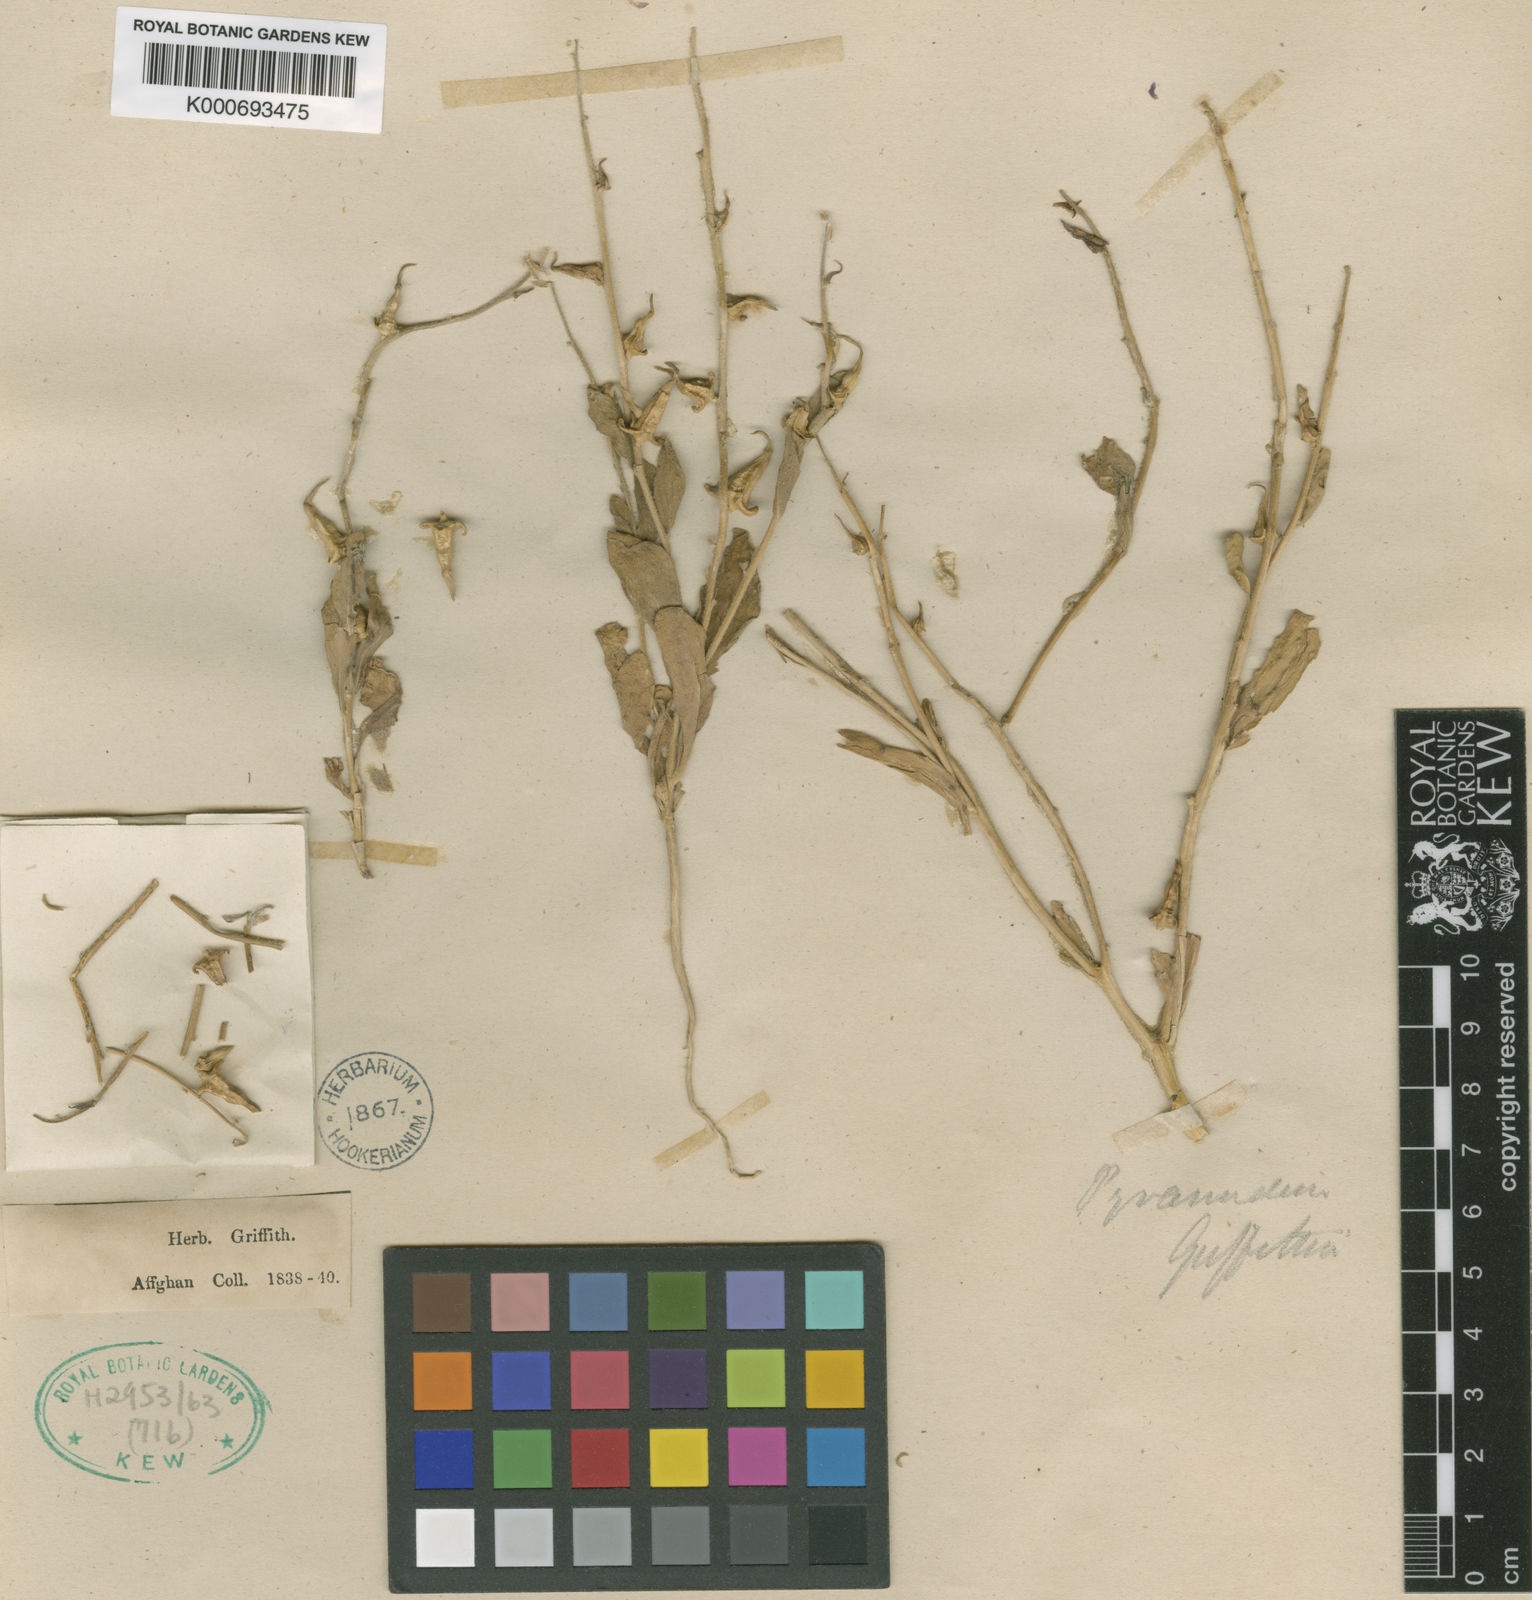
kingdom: Plantae
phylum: Tracheophyta
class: Magnoliopsida
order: Brassicales
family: Brassicaceae
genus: Veselskya
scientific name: Veselskya griffithiana
